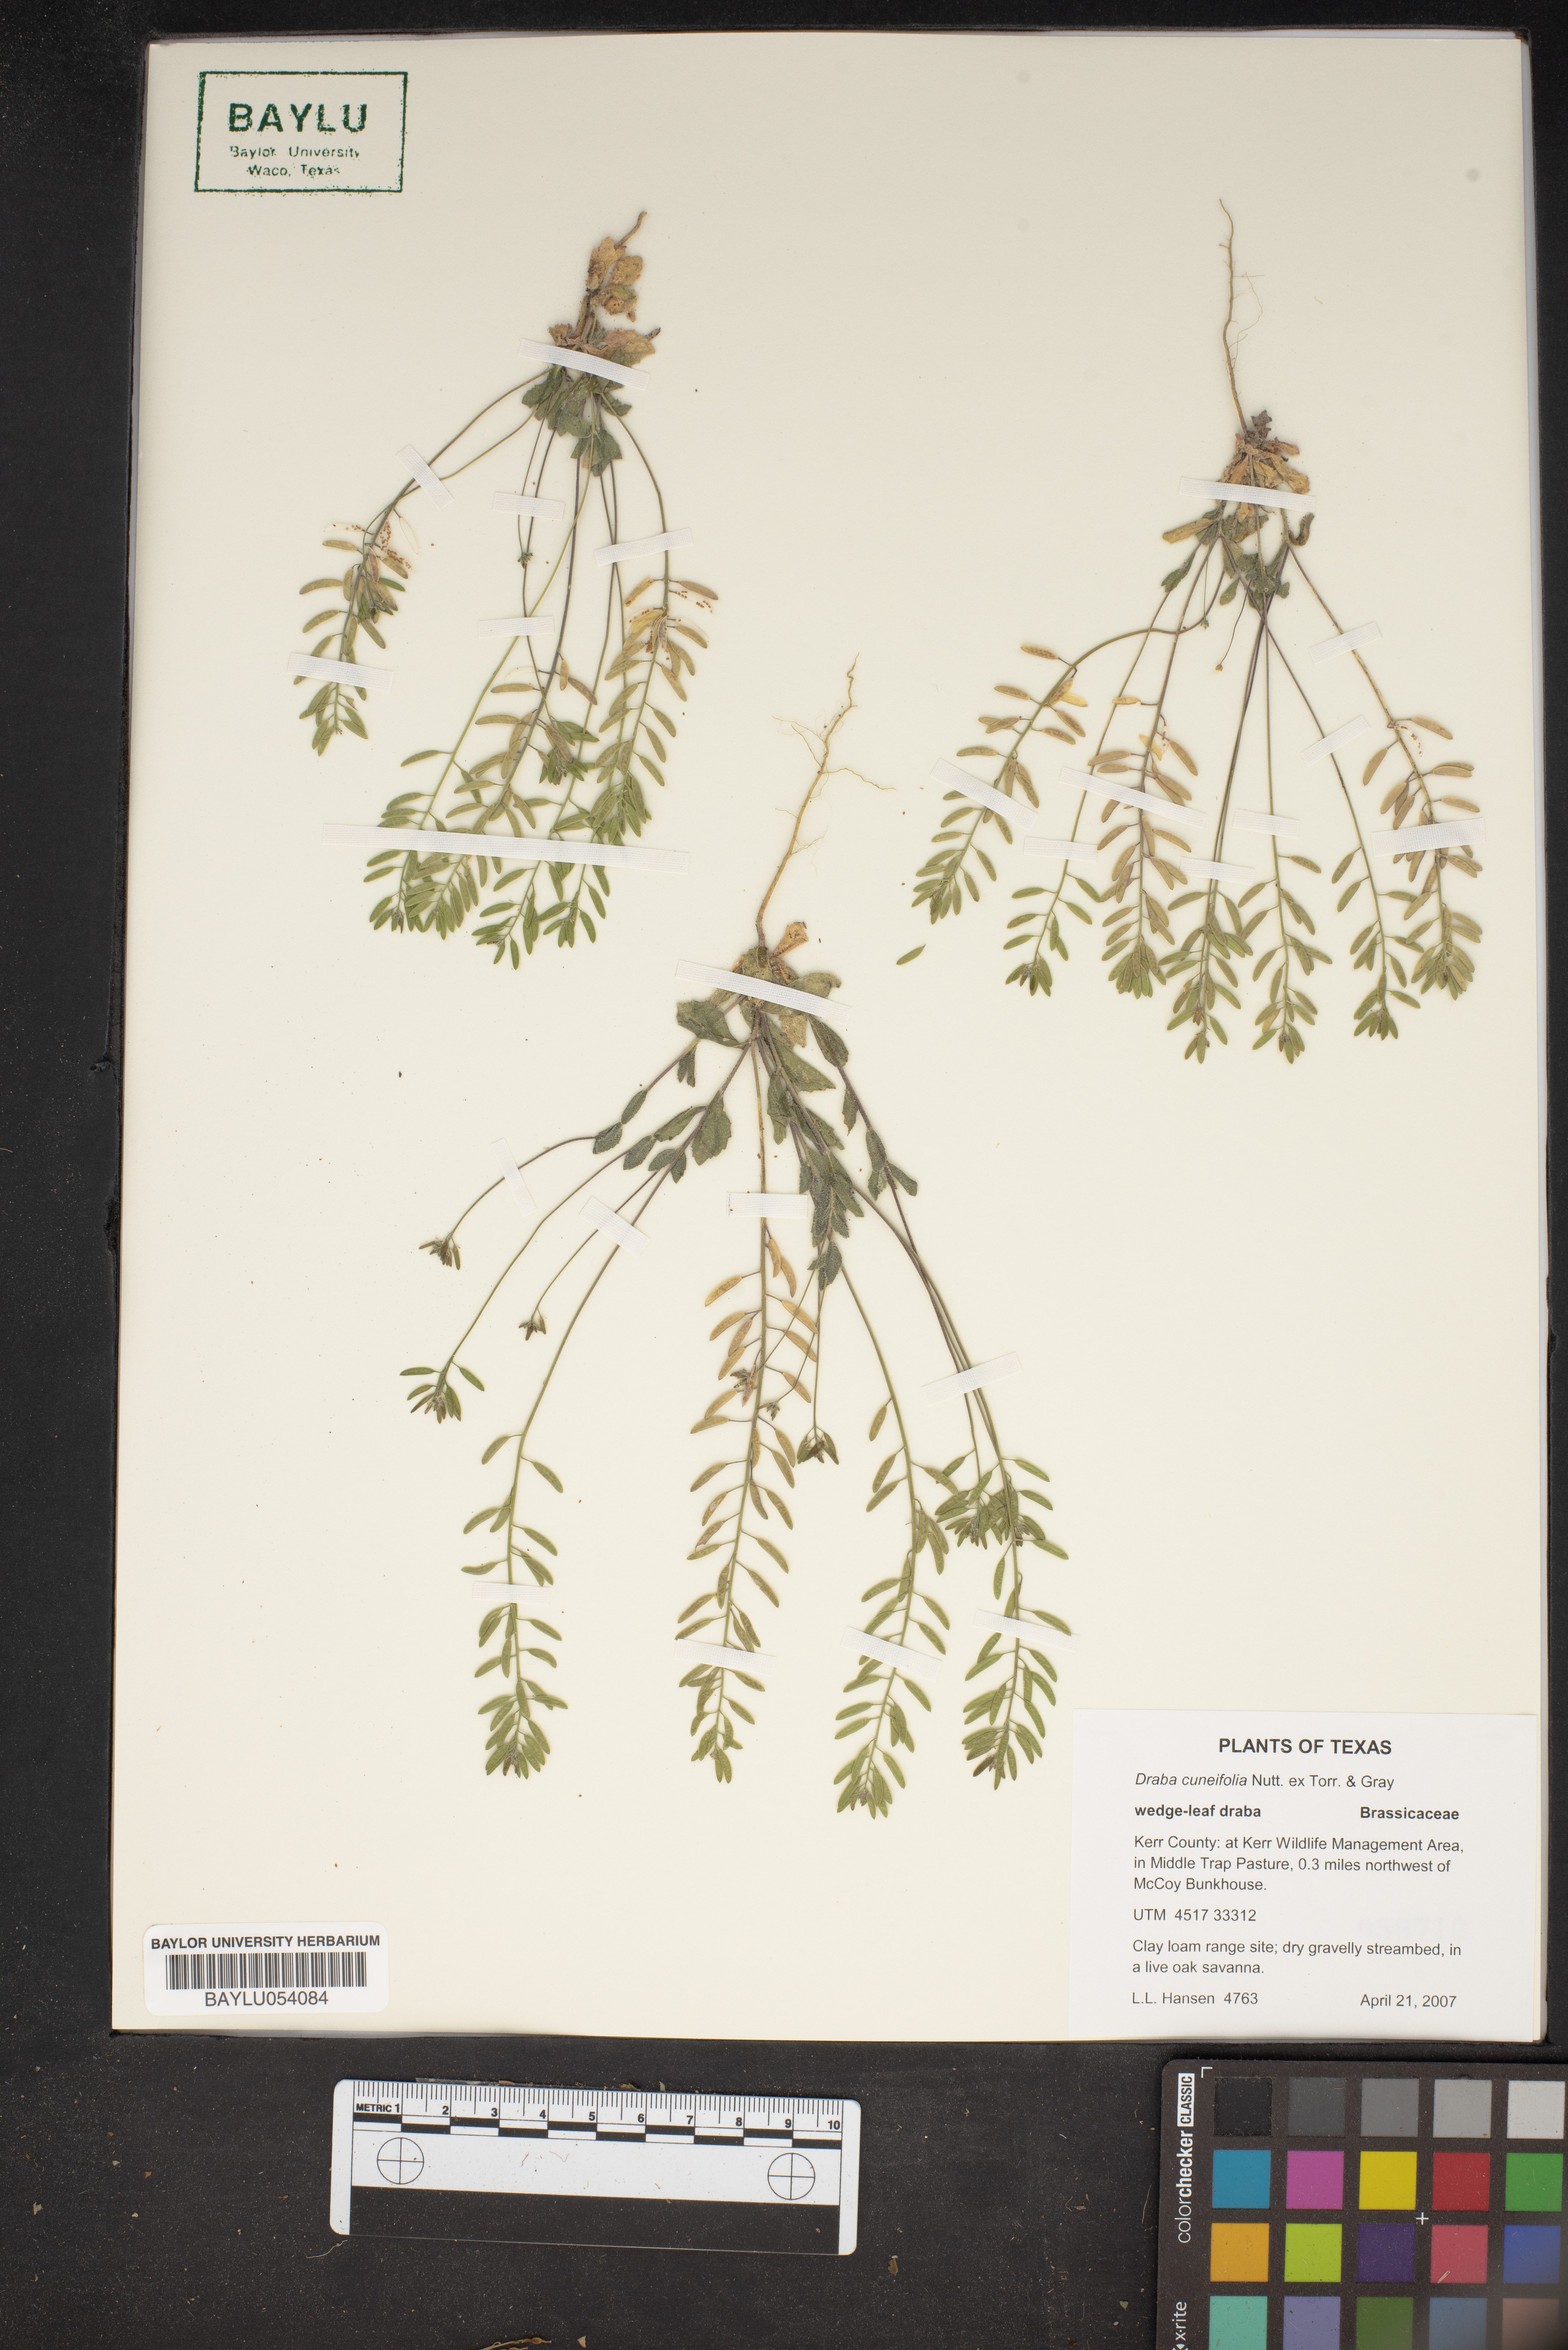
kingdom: Plantae
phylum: Tracheophyta
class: Magnoliopsida
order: Brassicales
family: Brassicaceae
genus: Tomostima
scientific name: Tomostima cuneifolia
